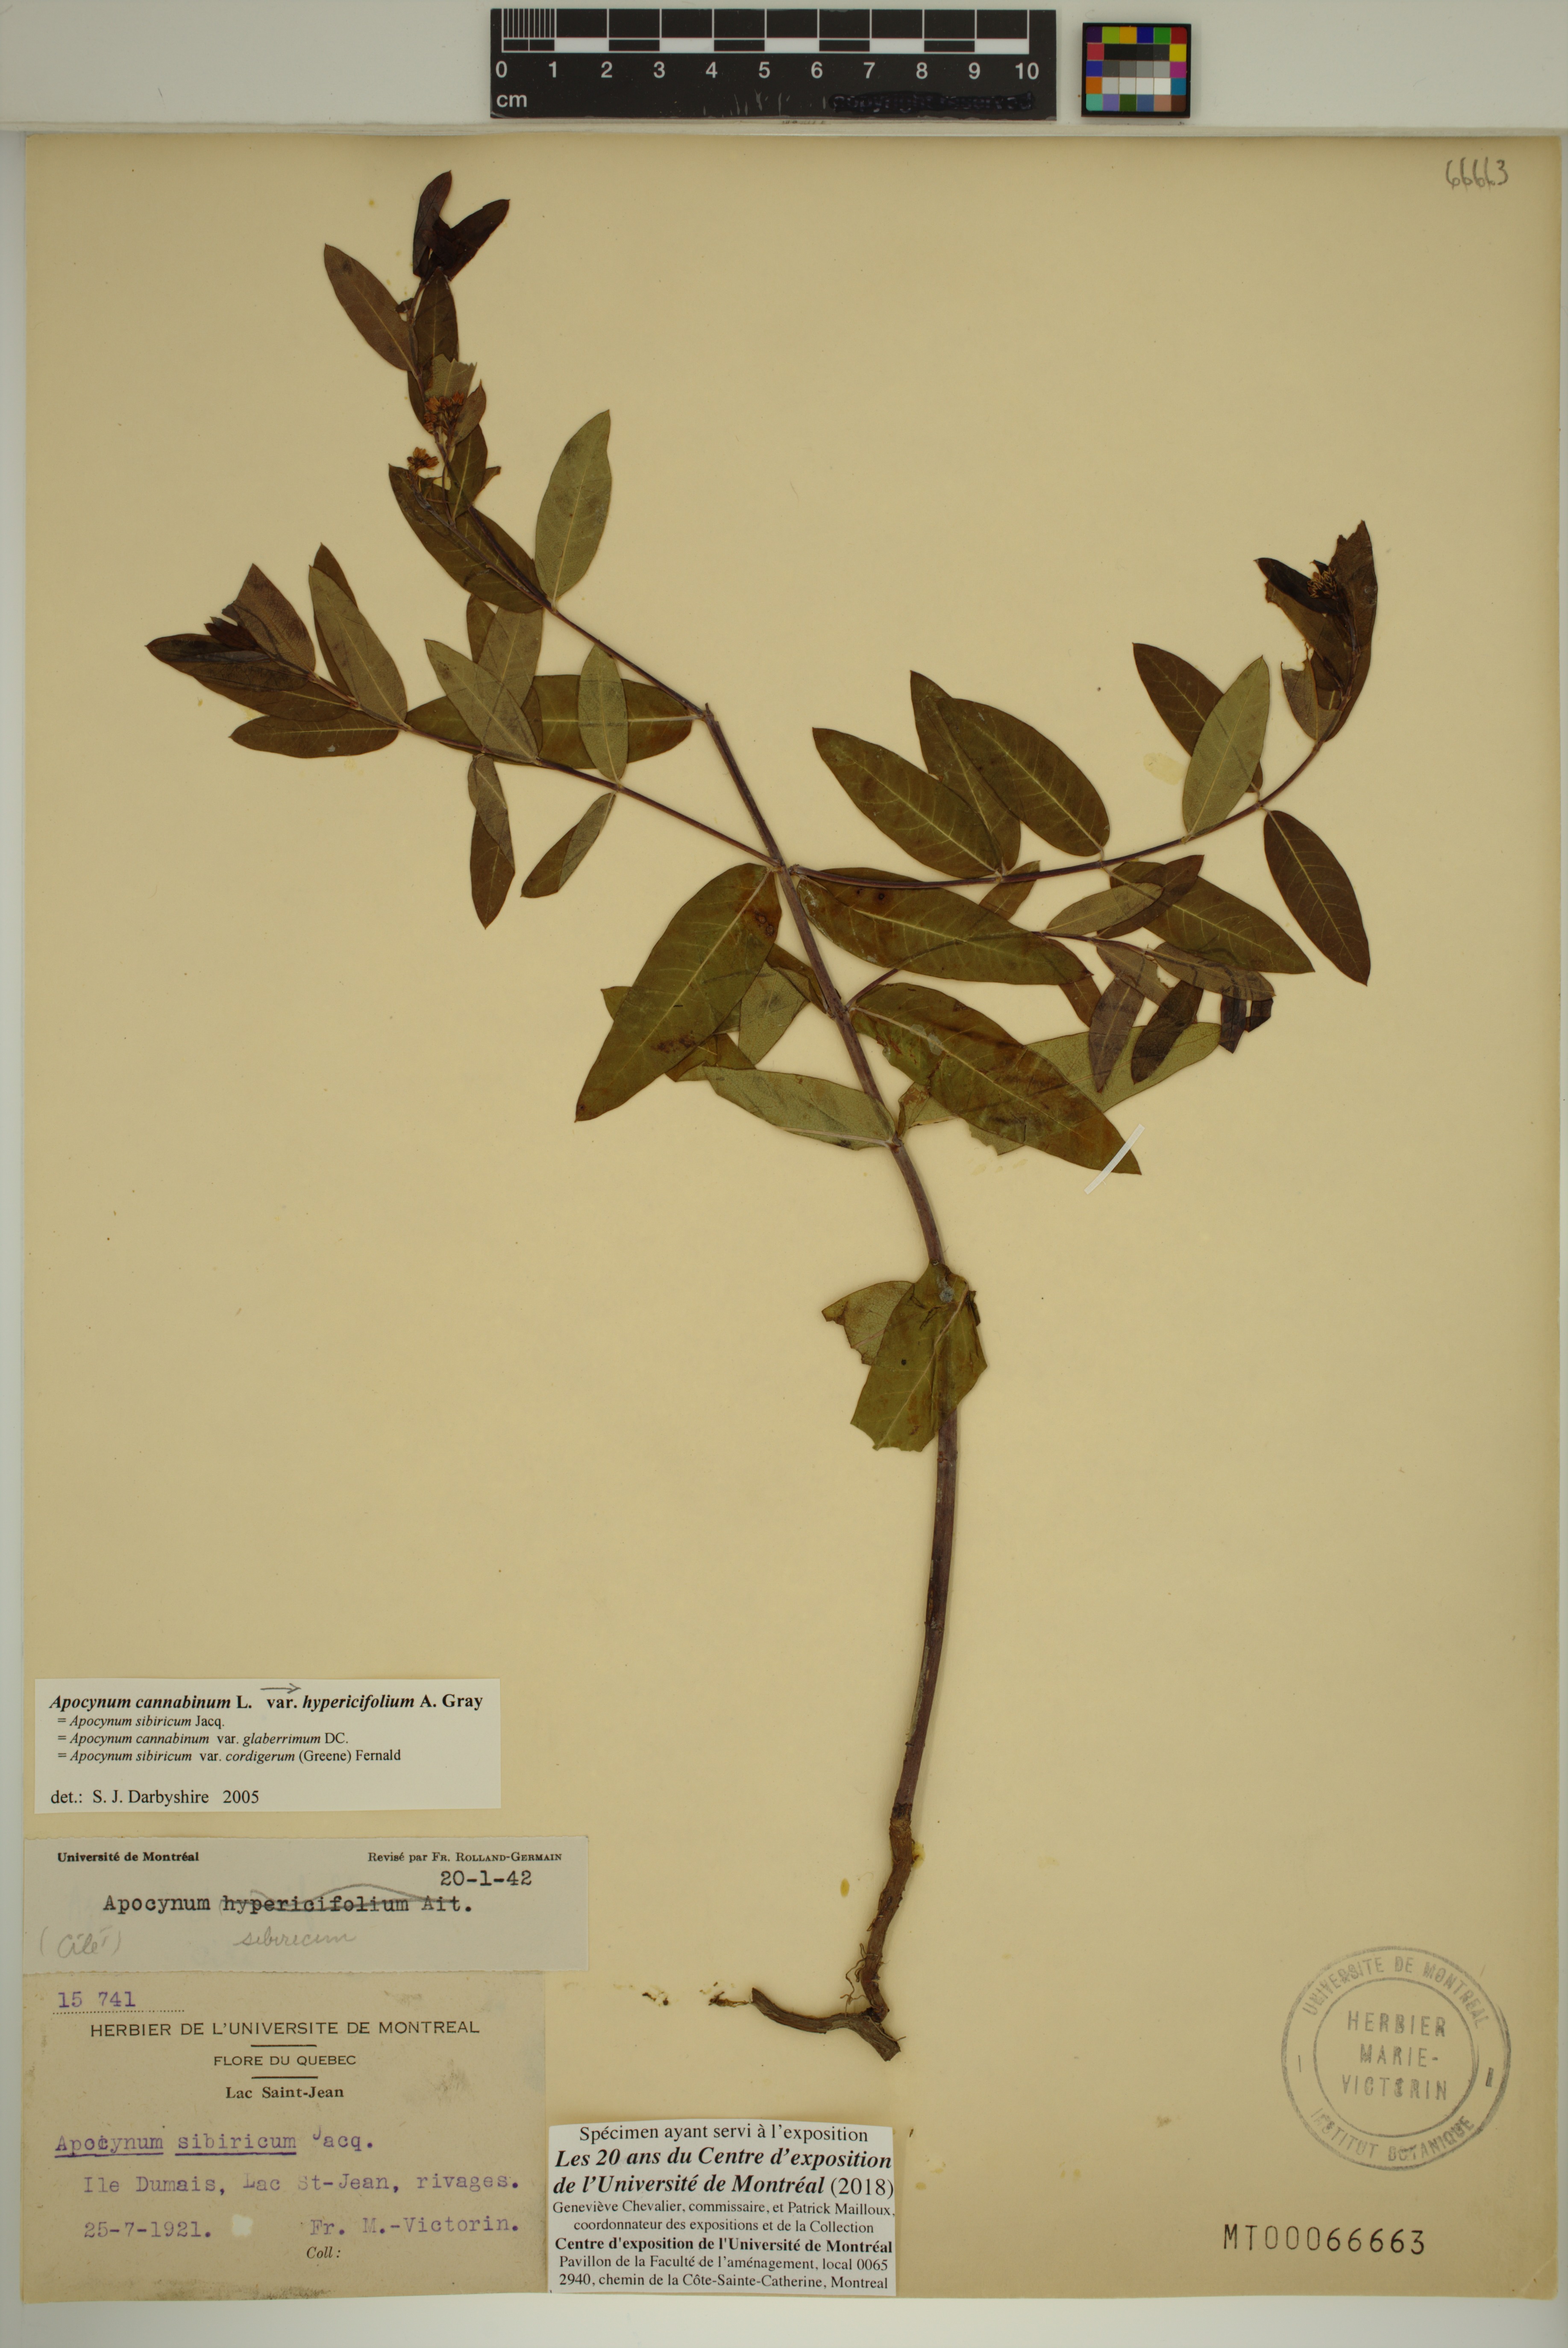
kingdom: Plantae
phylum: Tracheophyta
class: Magnoliopsida
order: Gentianales
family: Apocynaceae
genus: Apocynum
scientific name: Apocynum cannabinum
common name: Hemp dogbane
